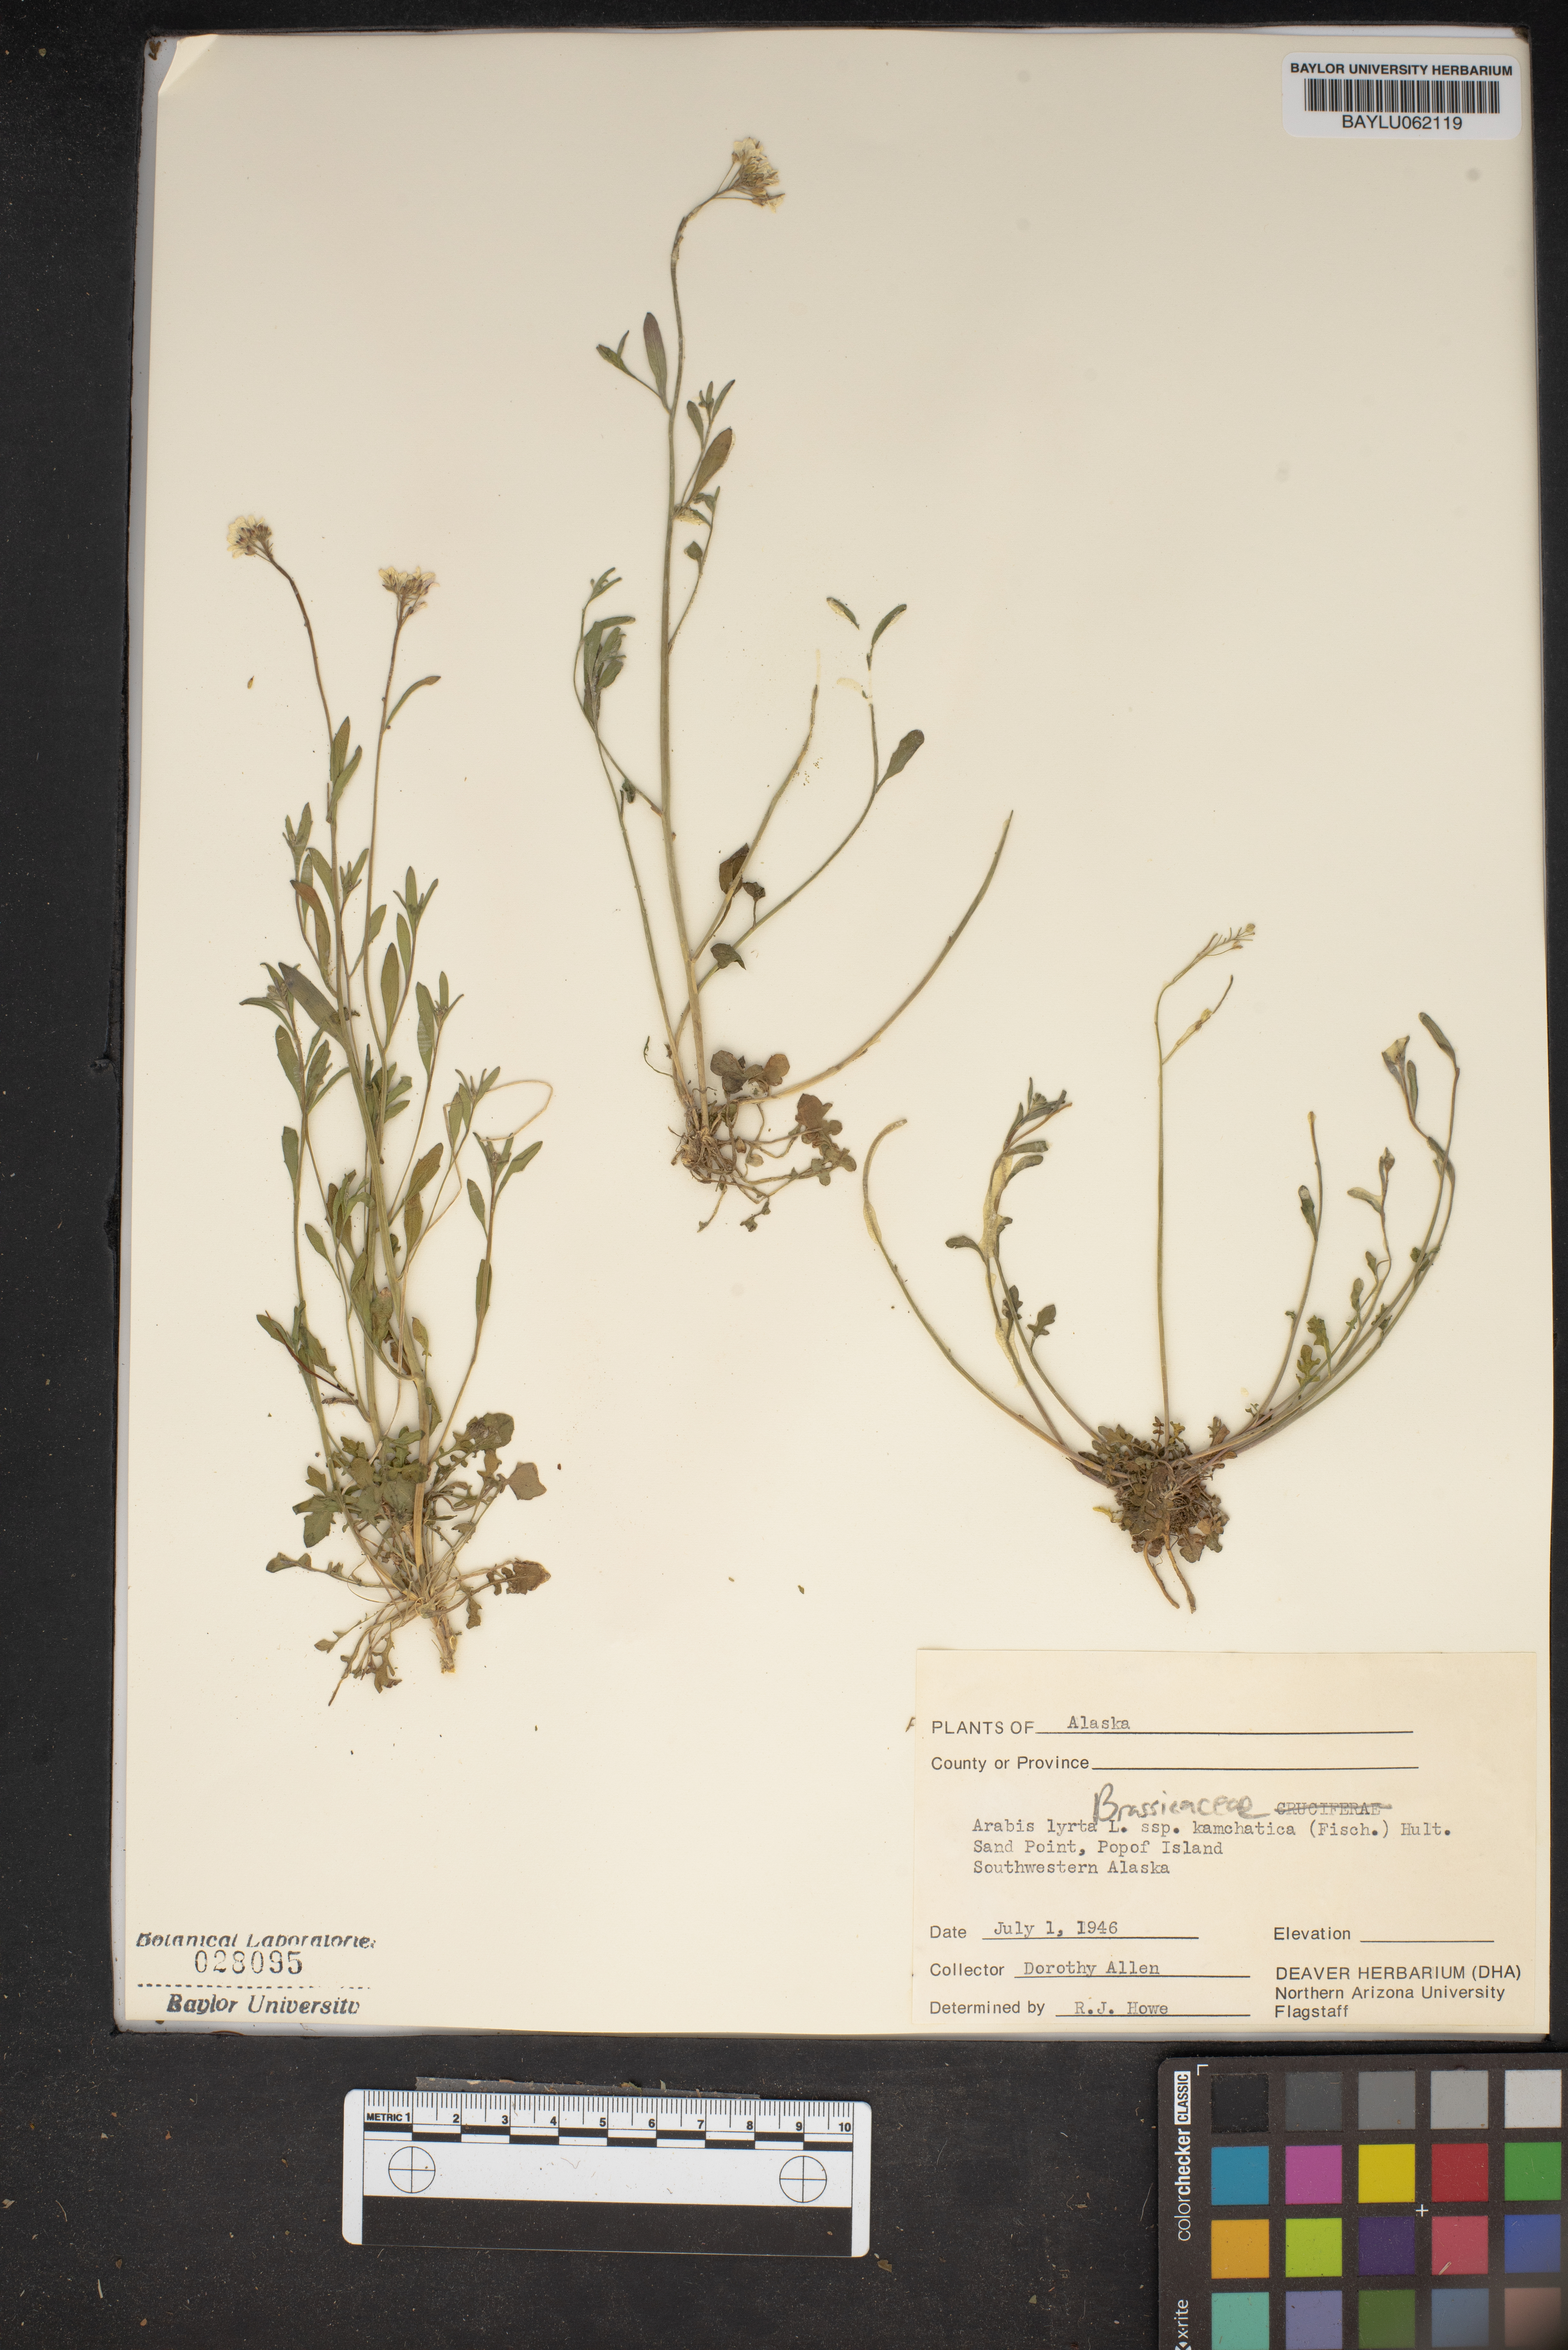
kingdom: Plantae
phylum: Tracheophyta
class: Magnoliopsida
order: Brassicales
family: Brassicaceae
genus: Arabidopsis
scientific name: Arabidopsis lyrata
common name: Lyrate rockcress
